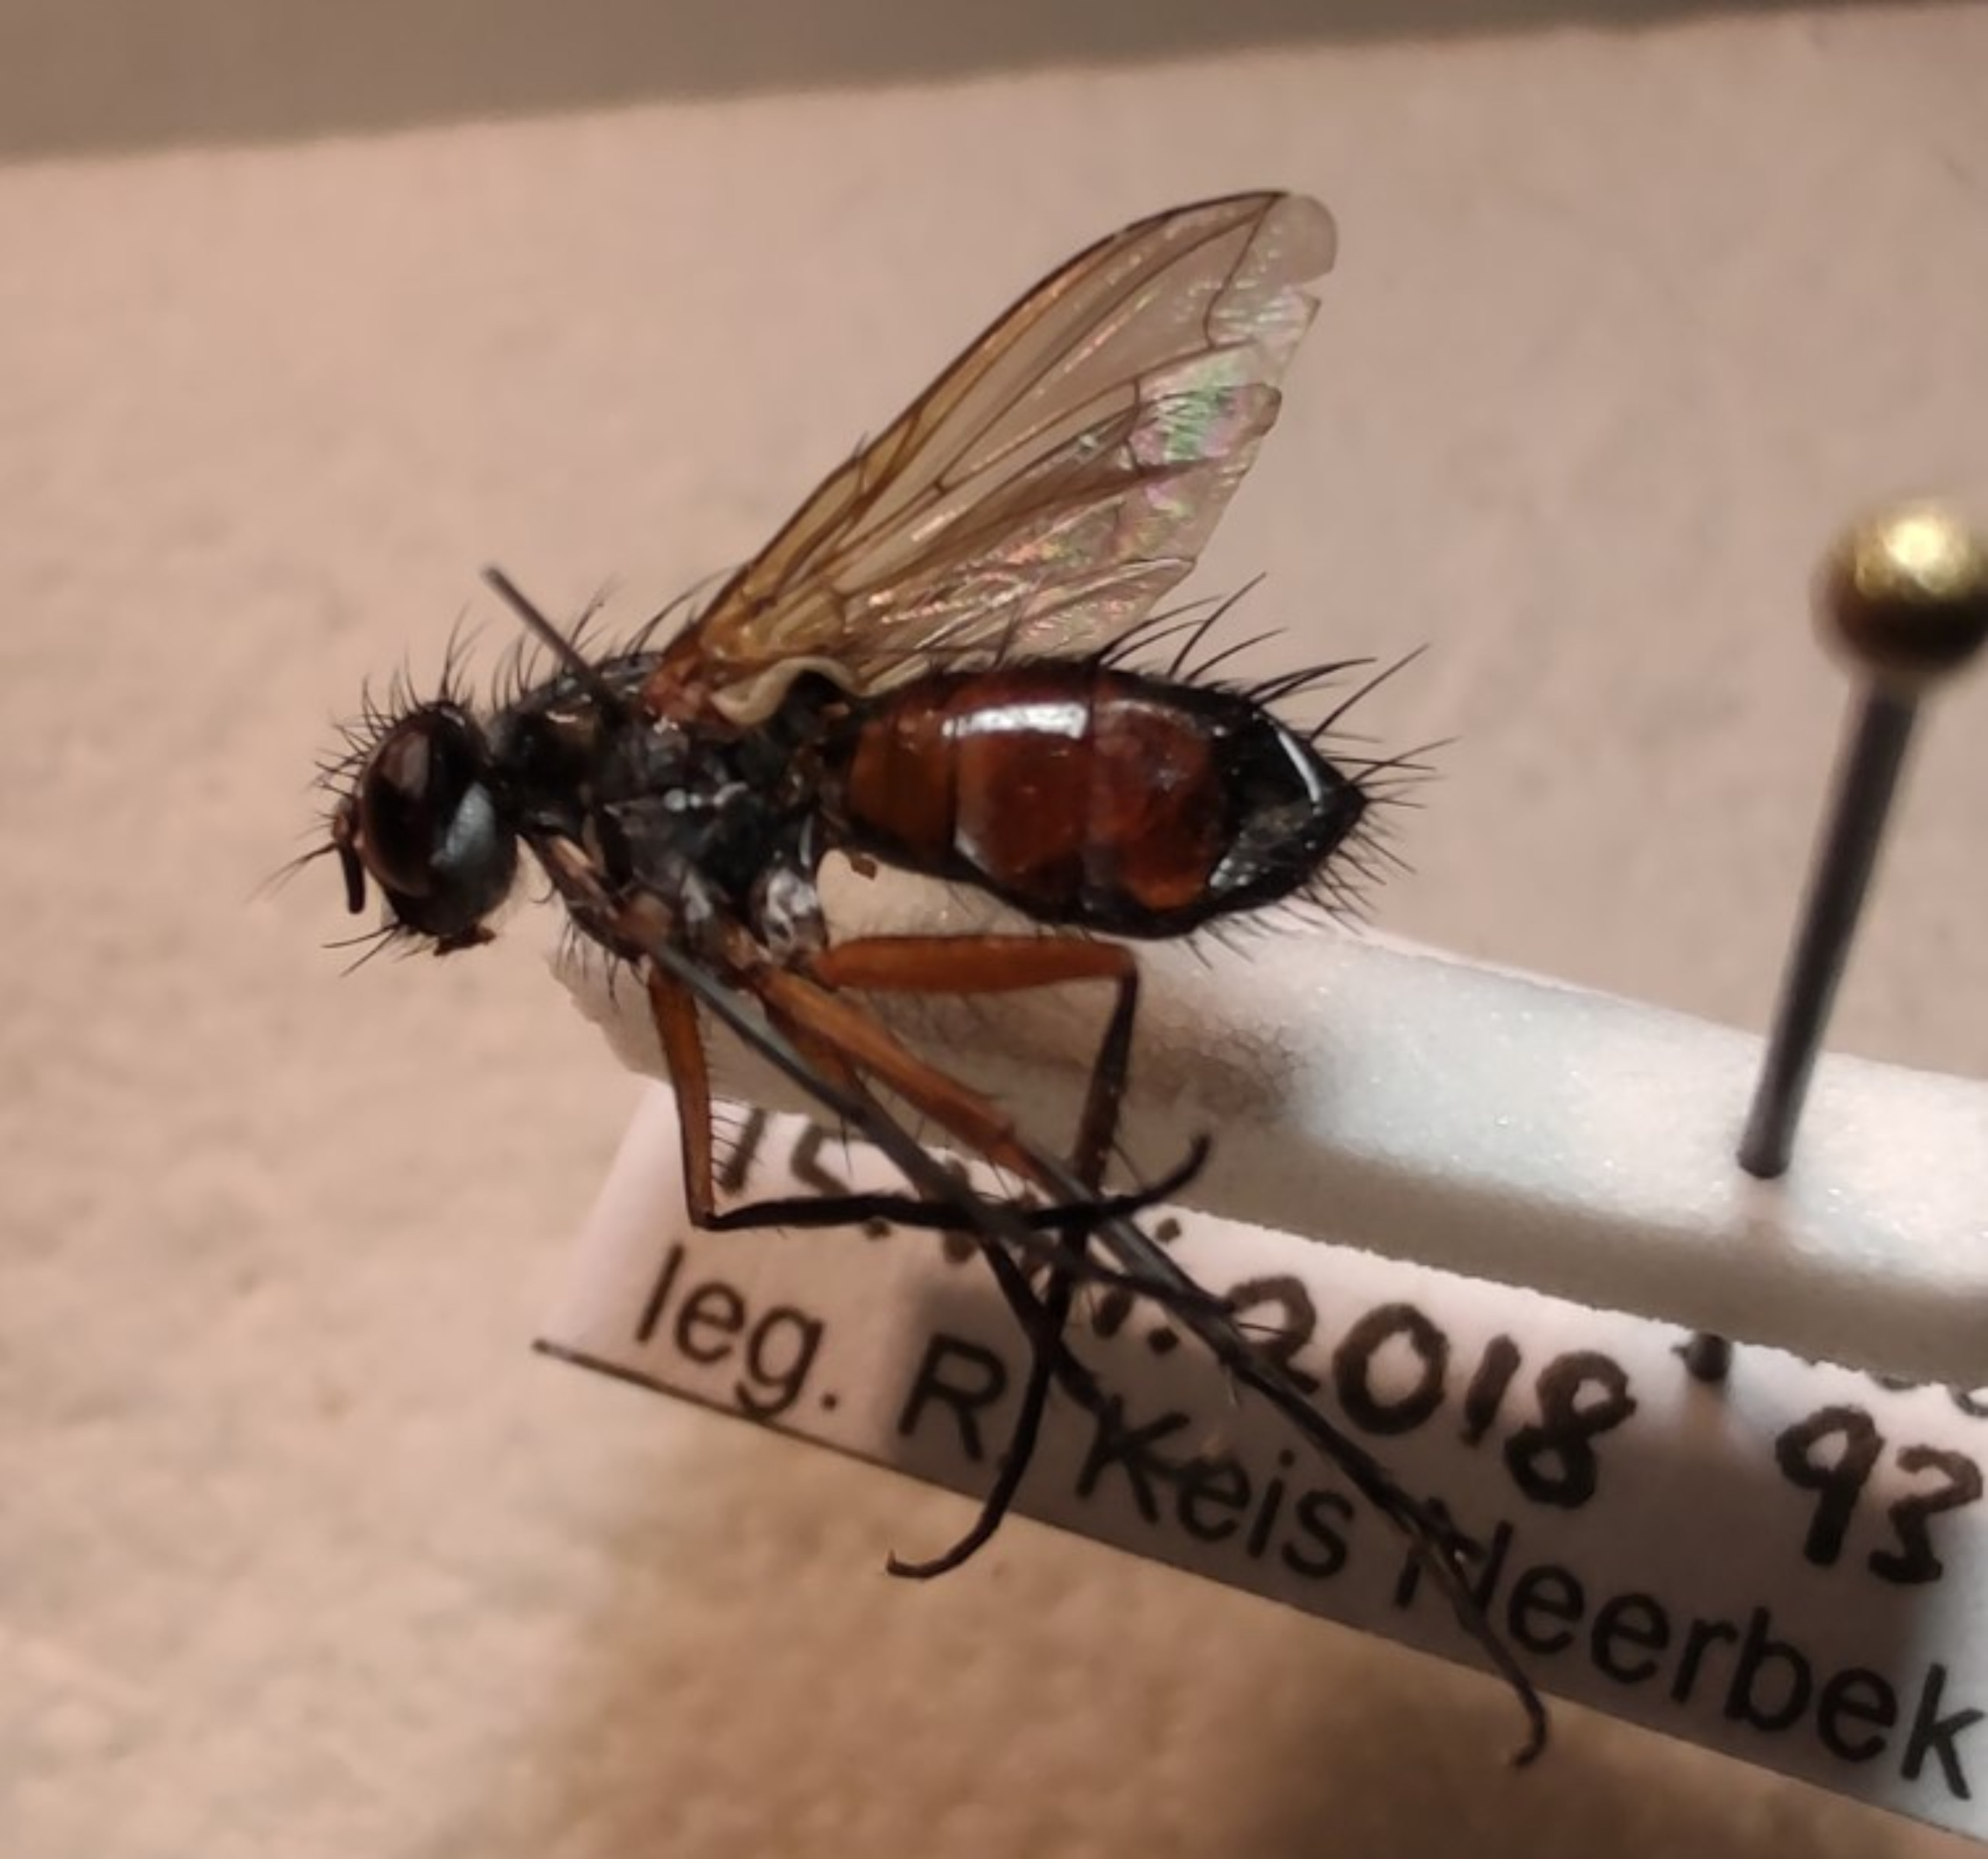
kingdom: Animalia
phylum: Arthropoda
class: Insecta
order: Diptera
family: Tachinidae
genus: Mintho
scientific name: Mintho rufiventris
